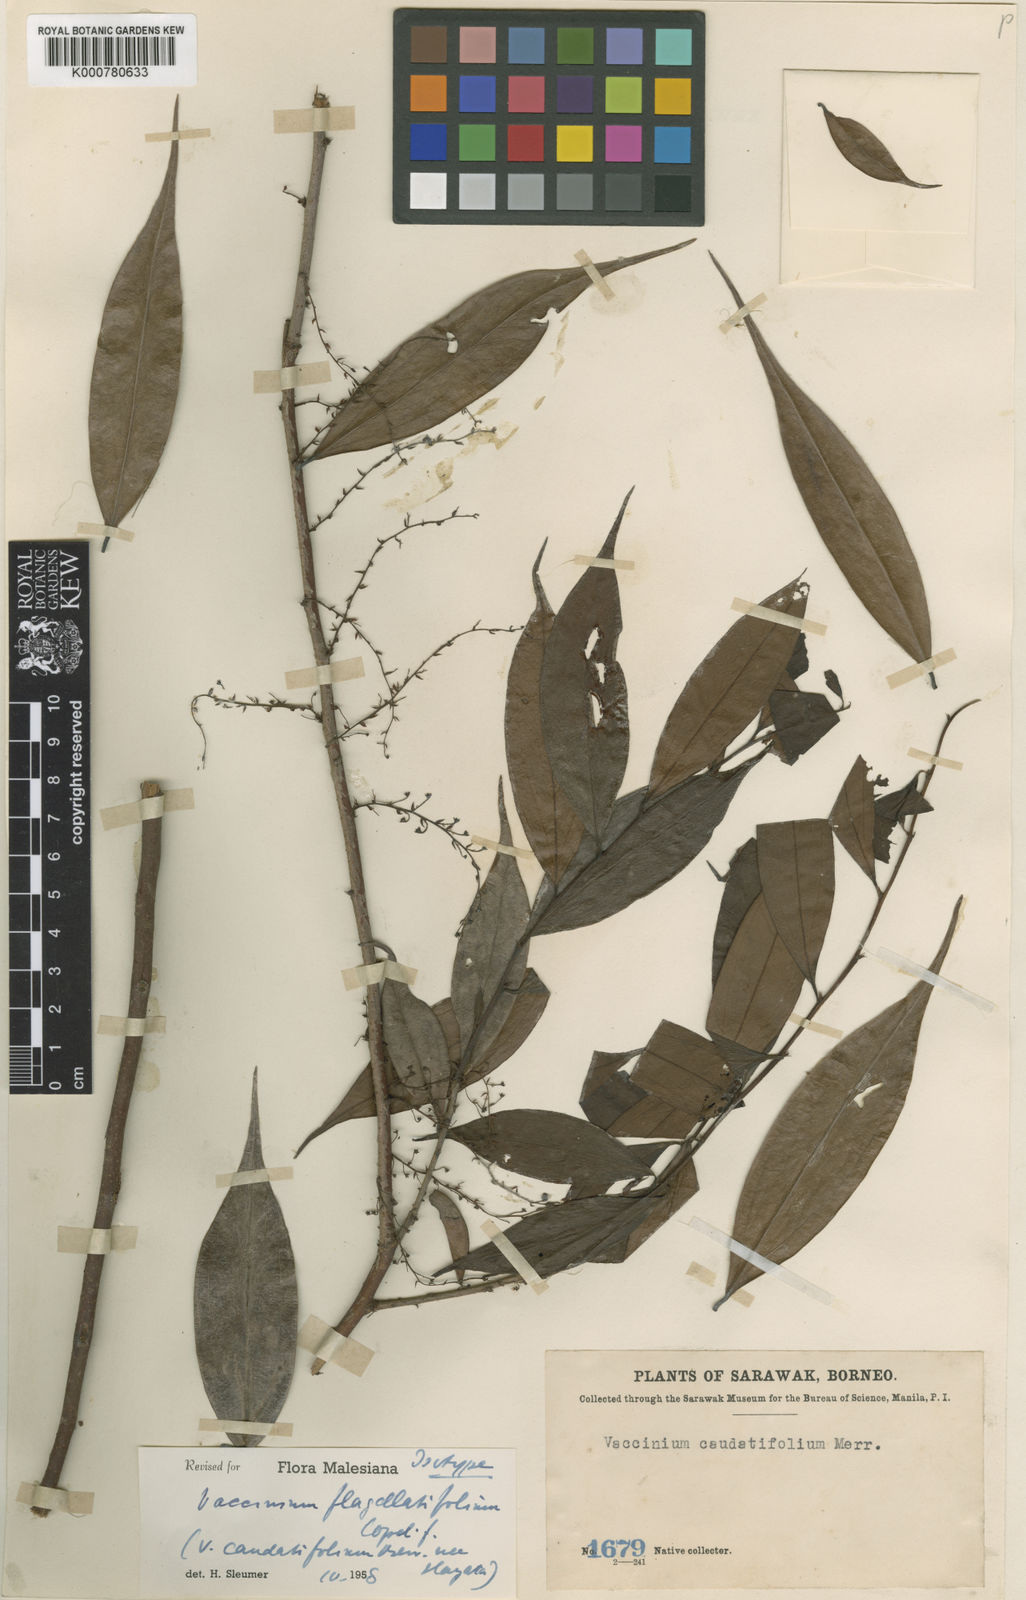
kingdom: Plantae
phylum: Tracheophyta
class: Magnoliopsida
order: Ericales
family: Ericaceae
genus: Rigiolepis
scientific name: Rigiolepis leptantha
